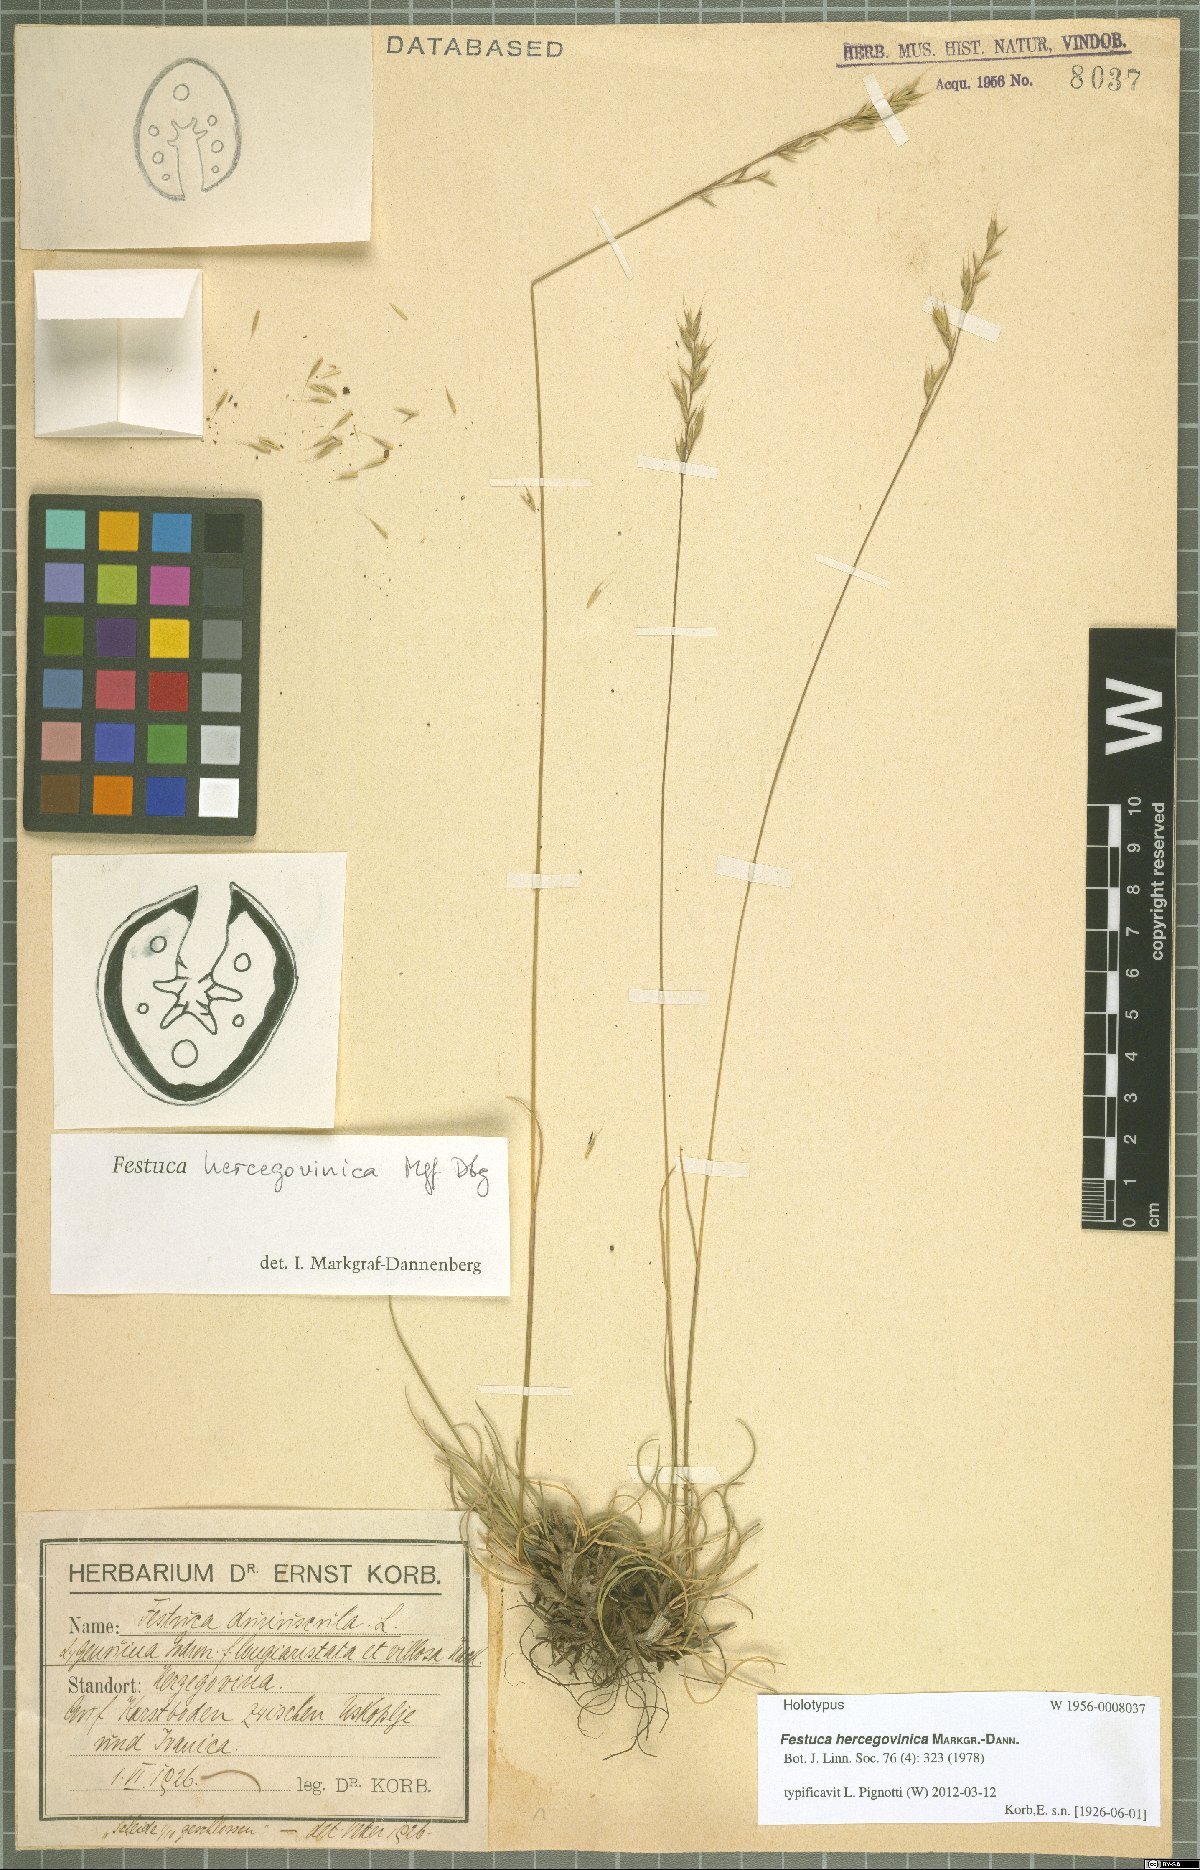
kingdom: Plantae
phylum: Tracheophyta
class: Liliopsida
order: Poales
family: Poaceae
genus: Festuca
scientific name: Festuca hercegovinica
